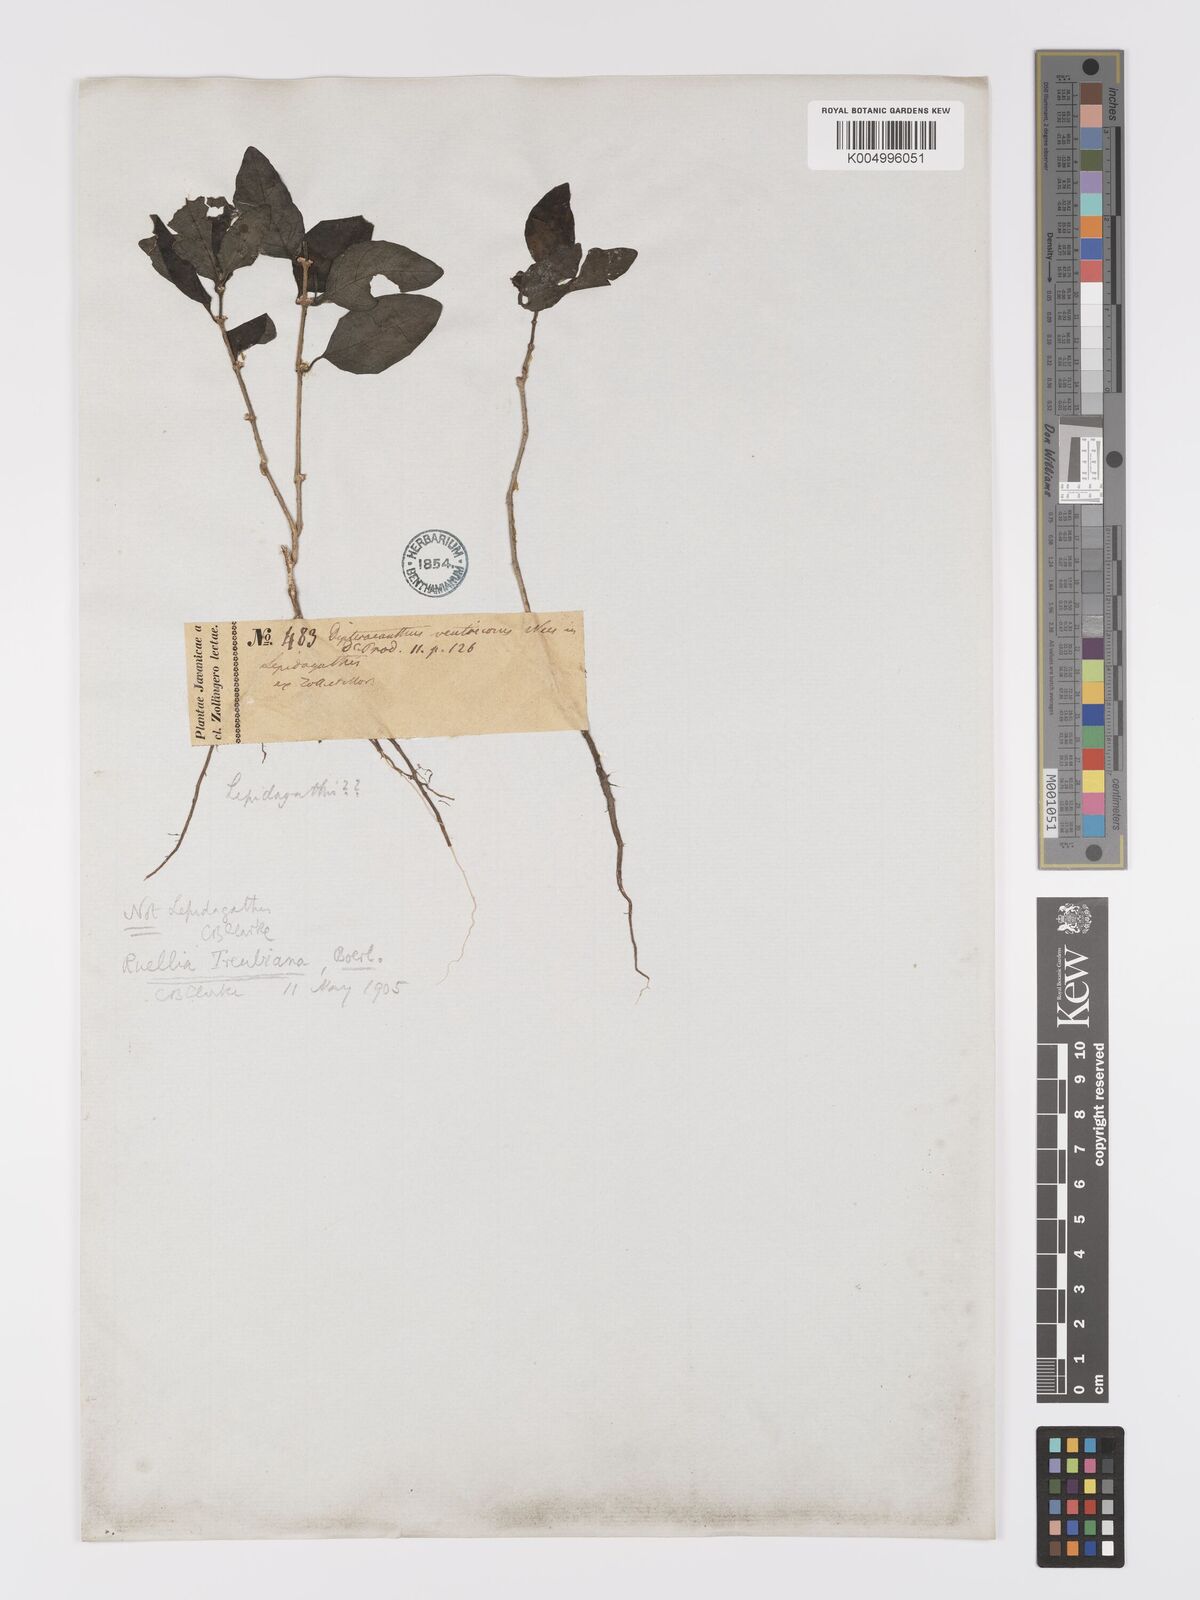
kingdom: Plantae
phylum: Tracheophyta
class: Magnoliopsida
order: Lamiales
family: Acanthaceae
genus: Ruellia
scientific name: Ruellia treubiana
